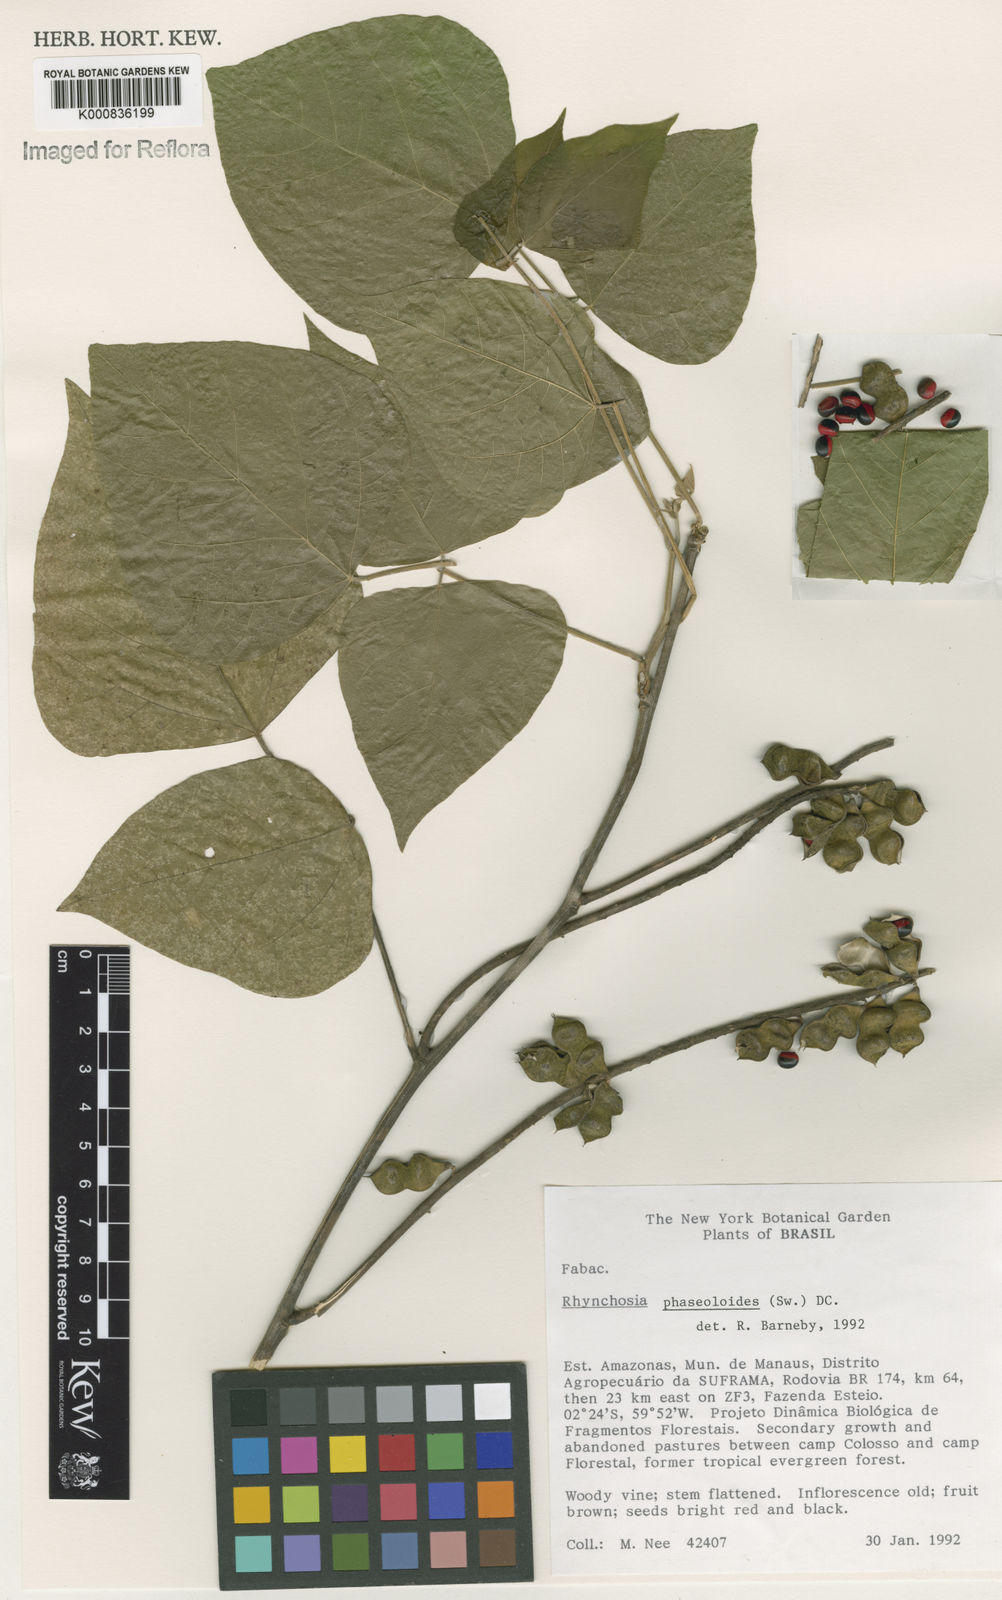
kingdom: Plantae
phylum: Tracheophyta
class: Magnoliopsida
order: Fabales
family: Fabaceae
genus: Rhynchosia
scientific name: Rhynchosia phaseoloides
